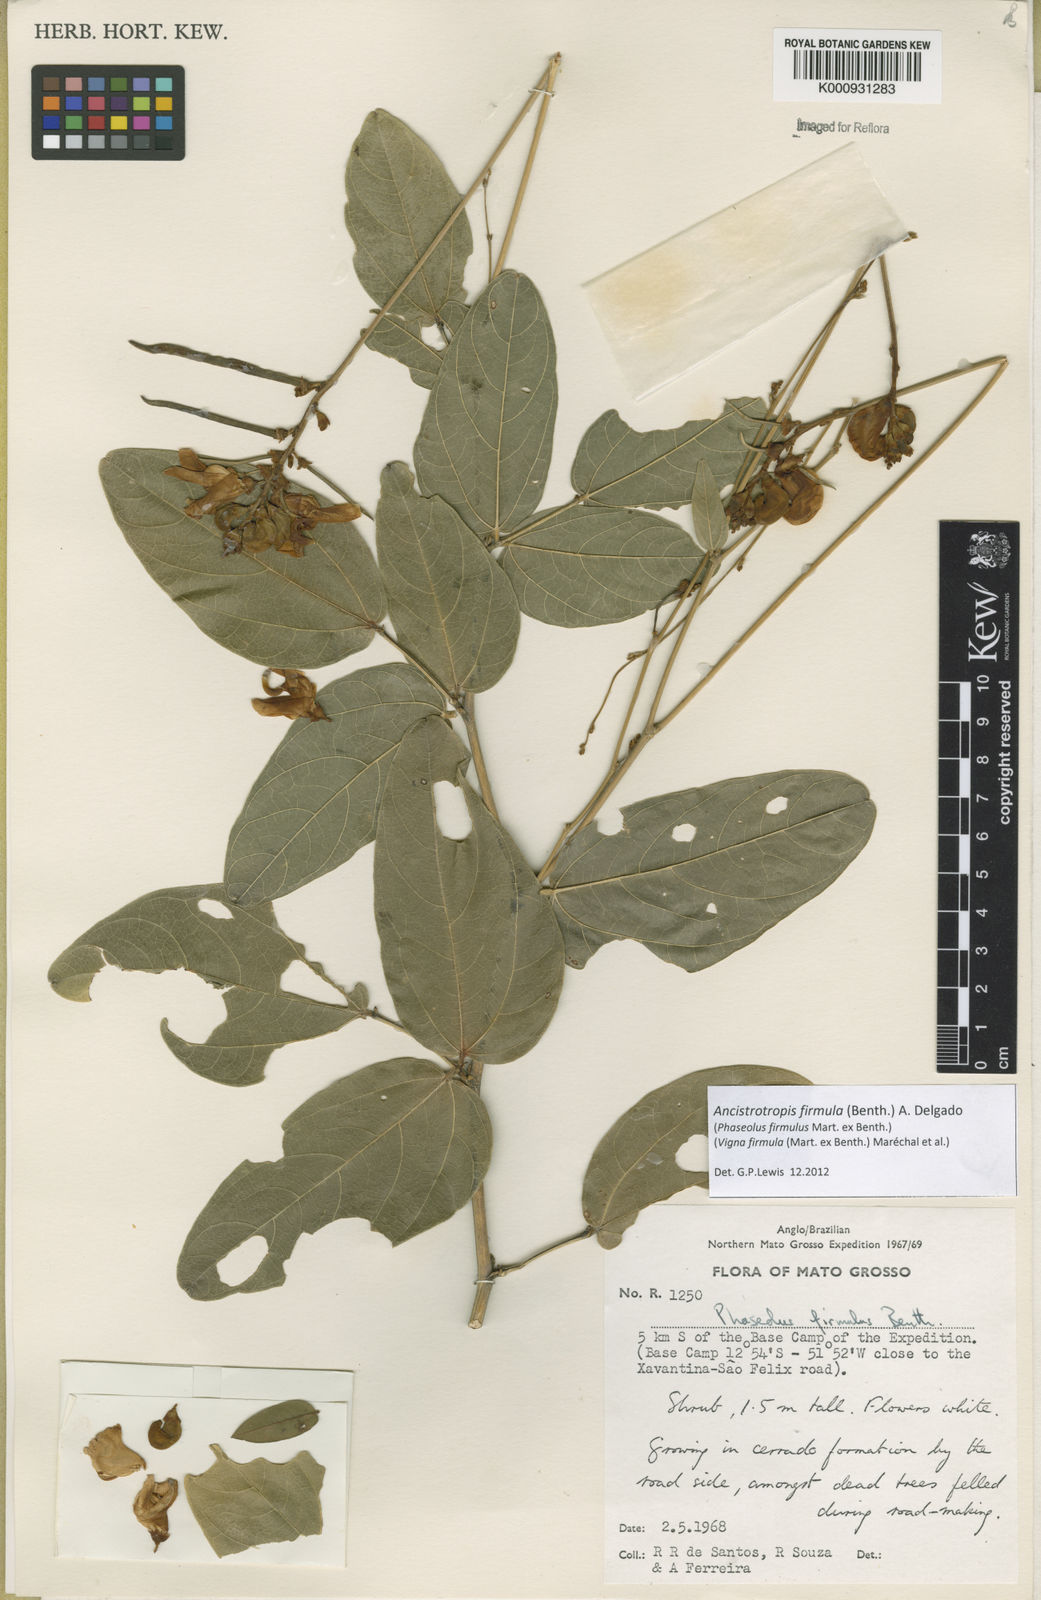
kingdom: Plantae
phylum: Tracheophyta
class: Magnoliopsida
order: Fabales
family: Fabaceae
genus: Ancistrotropis
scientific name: Ancistrotropis firmula
